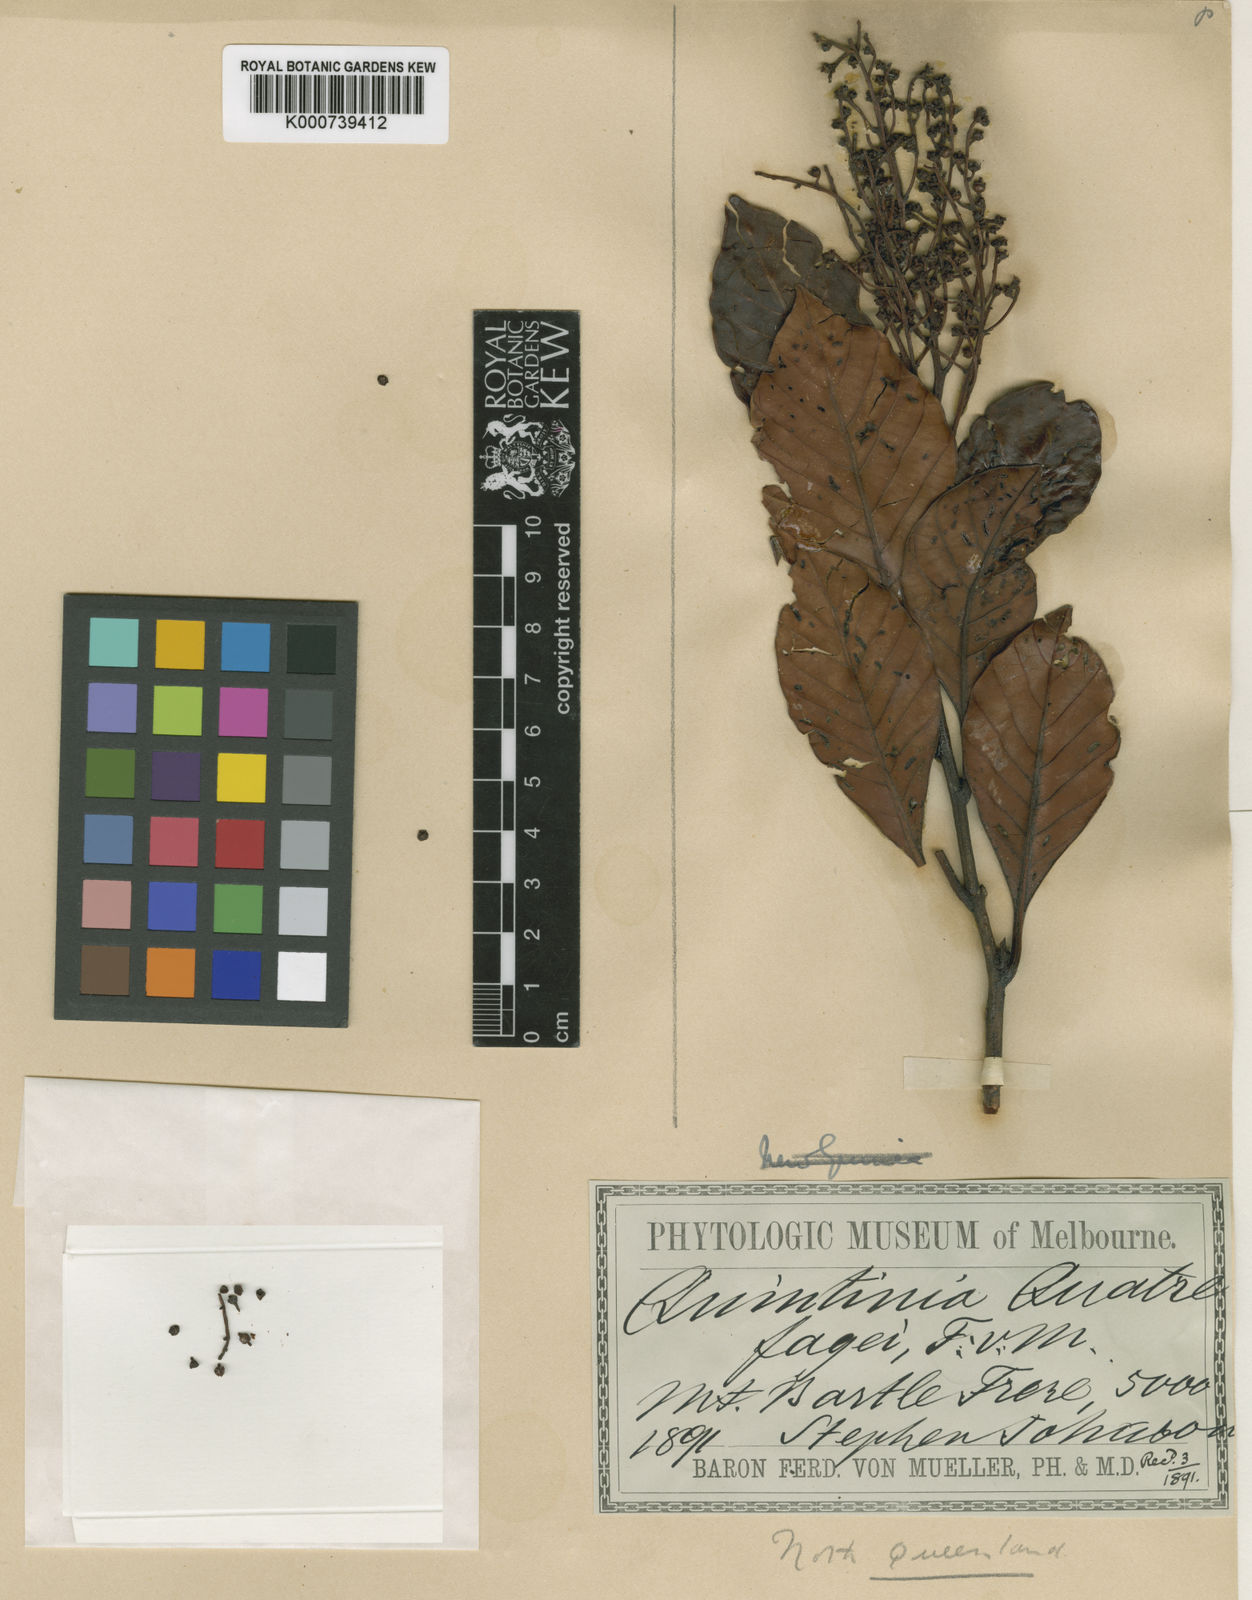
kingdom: Plantae
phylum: Tracheophyta
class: Magnoliopsida
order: Paracryphiales
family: Paracryphiaceae
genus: Quintinia
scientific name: Quintinia quatrefagesii
